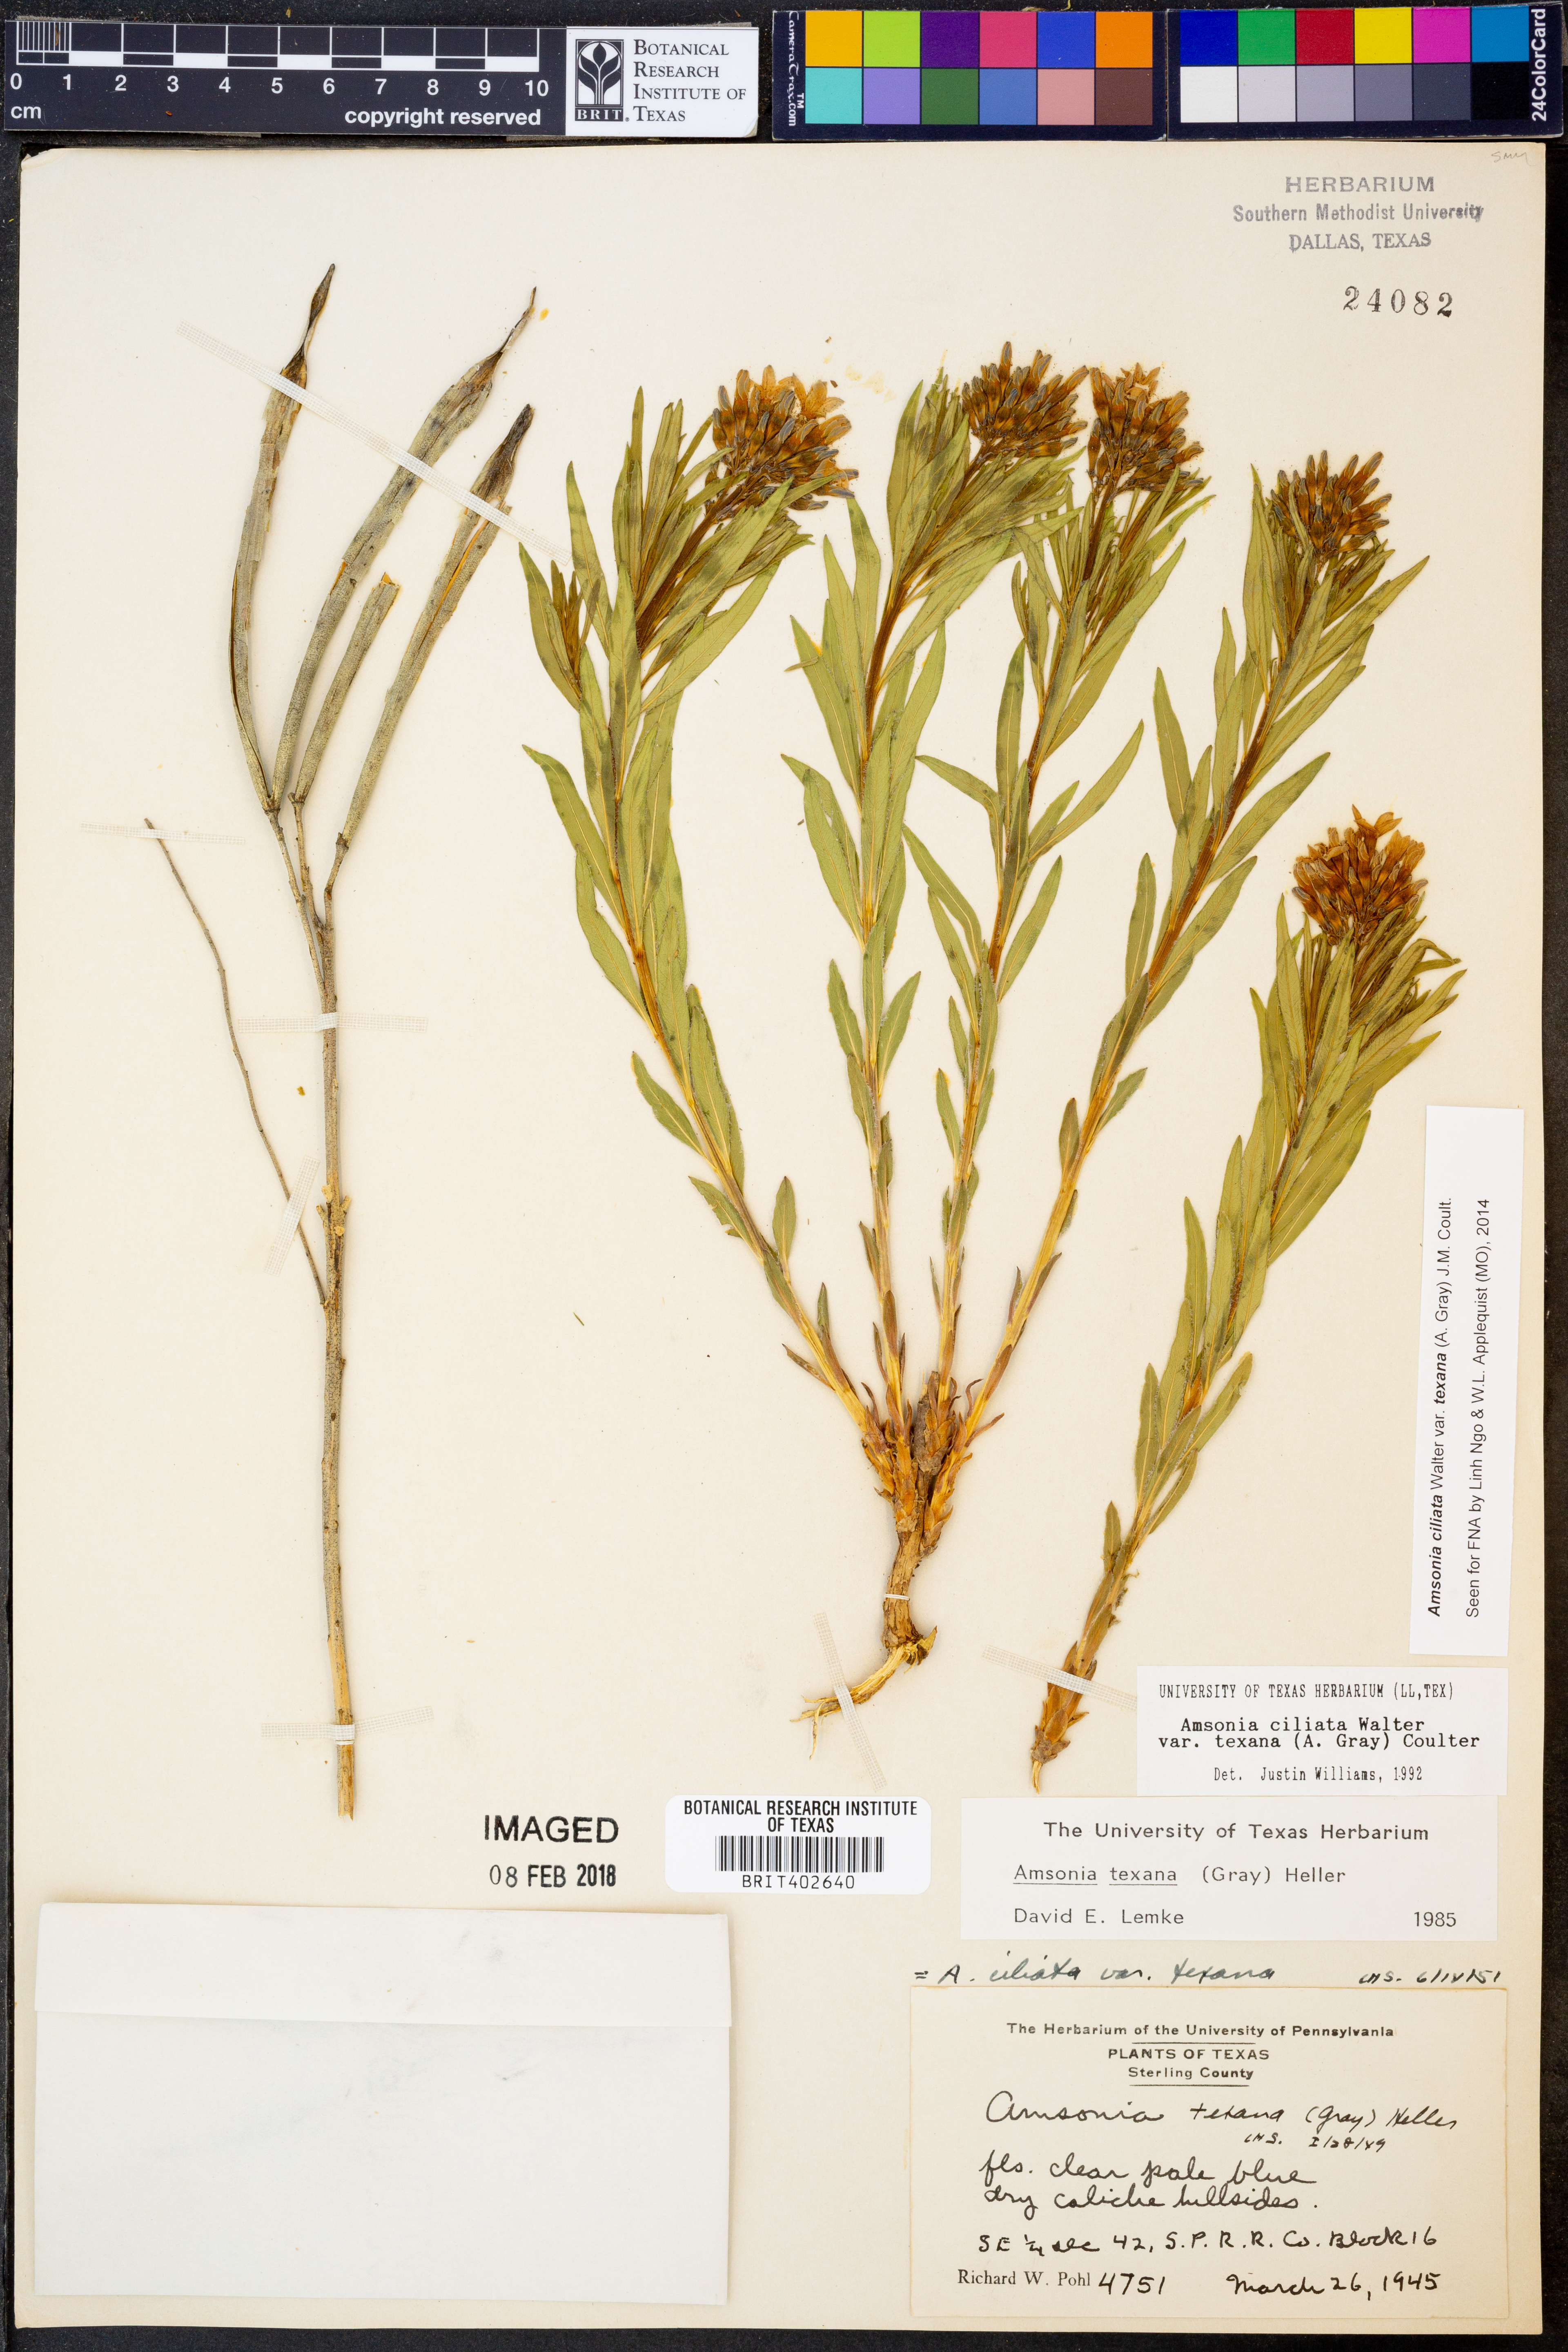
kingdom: Plantae
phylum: Tracheophyta
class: Magnoliopsida
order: Gentianales
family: Apocynaceae
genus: Amsonia
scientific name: Amsonia ciliata
